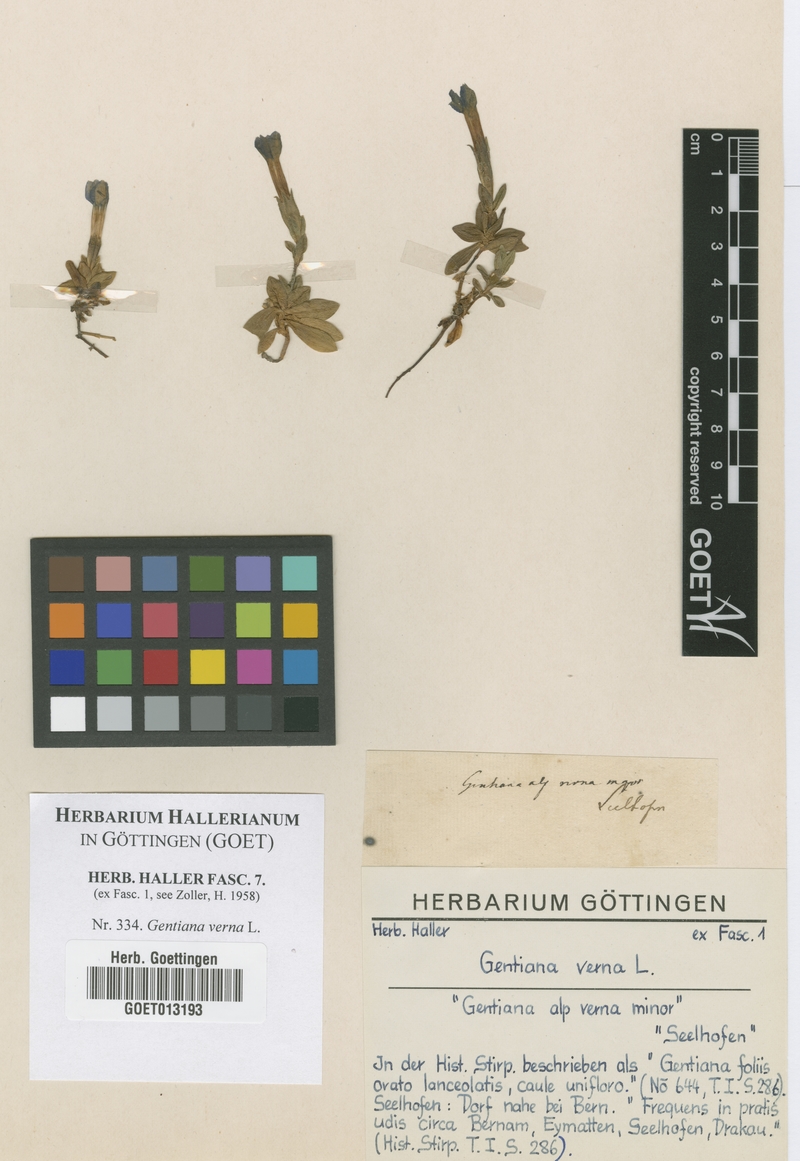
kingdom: Plantae
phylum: Tracheophyta
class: Magnoliopsida
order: Gentianales
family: Gentianaceae
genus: Gentiana
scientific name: Gentiana verna
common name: Spring gentian
